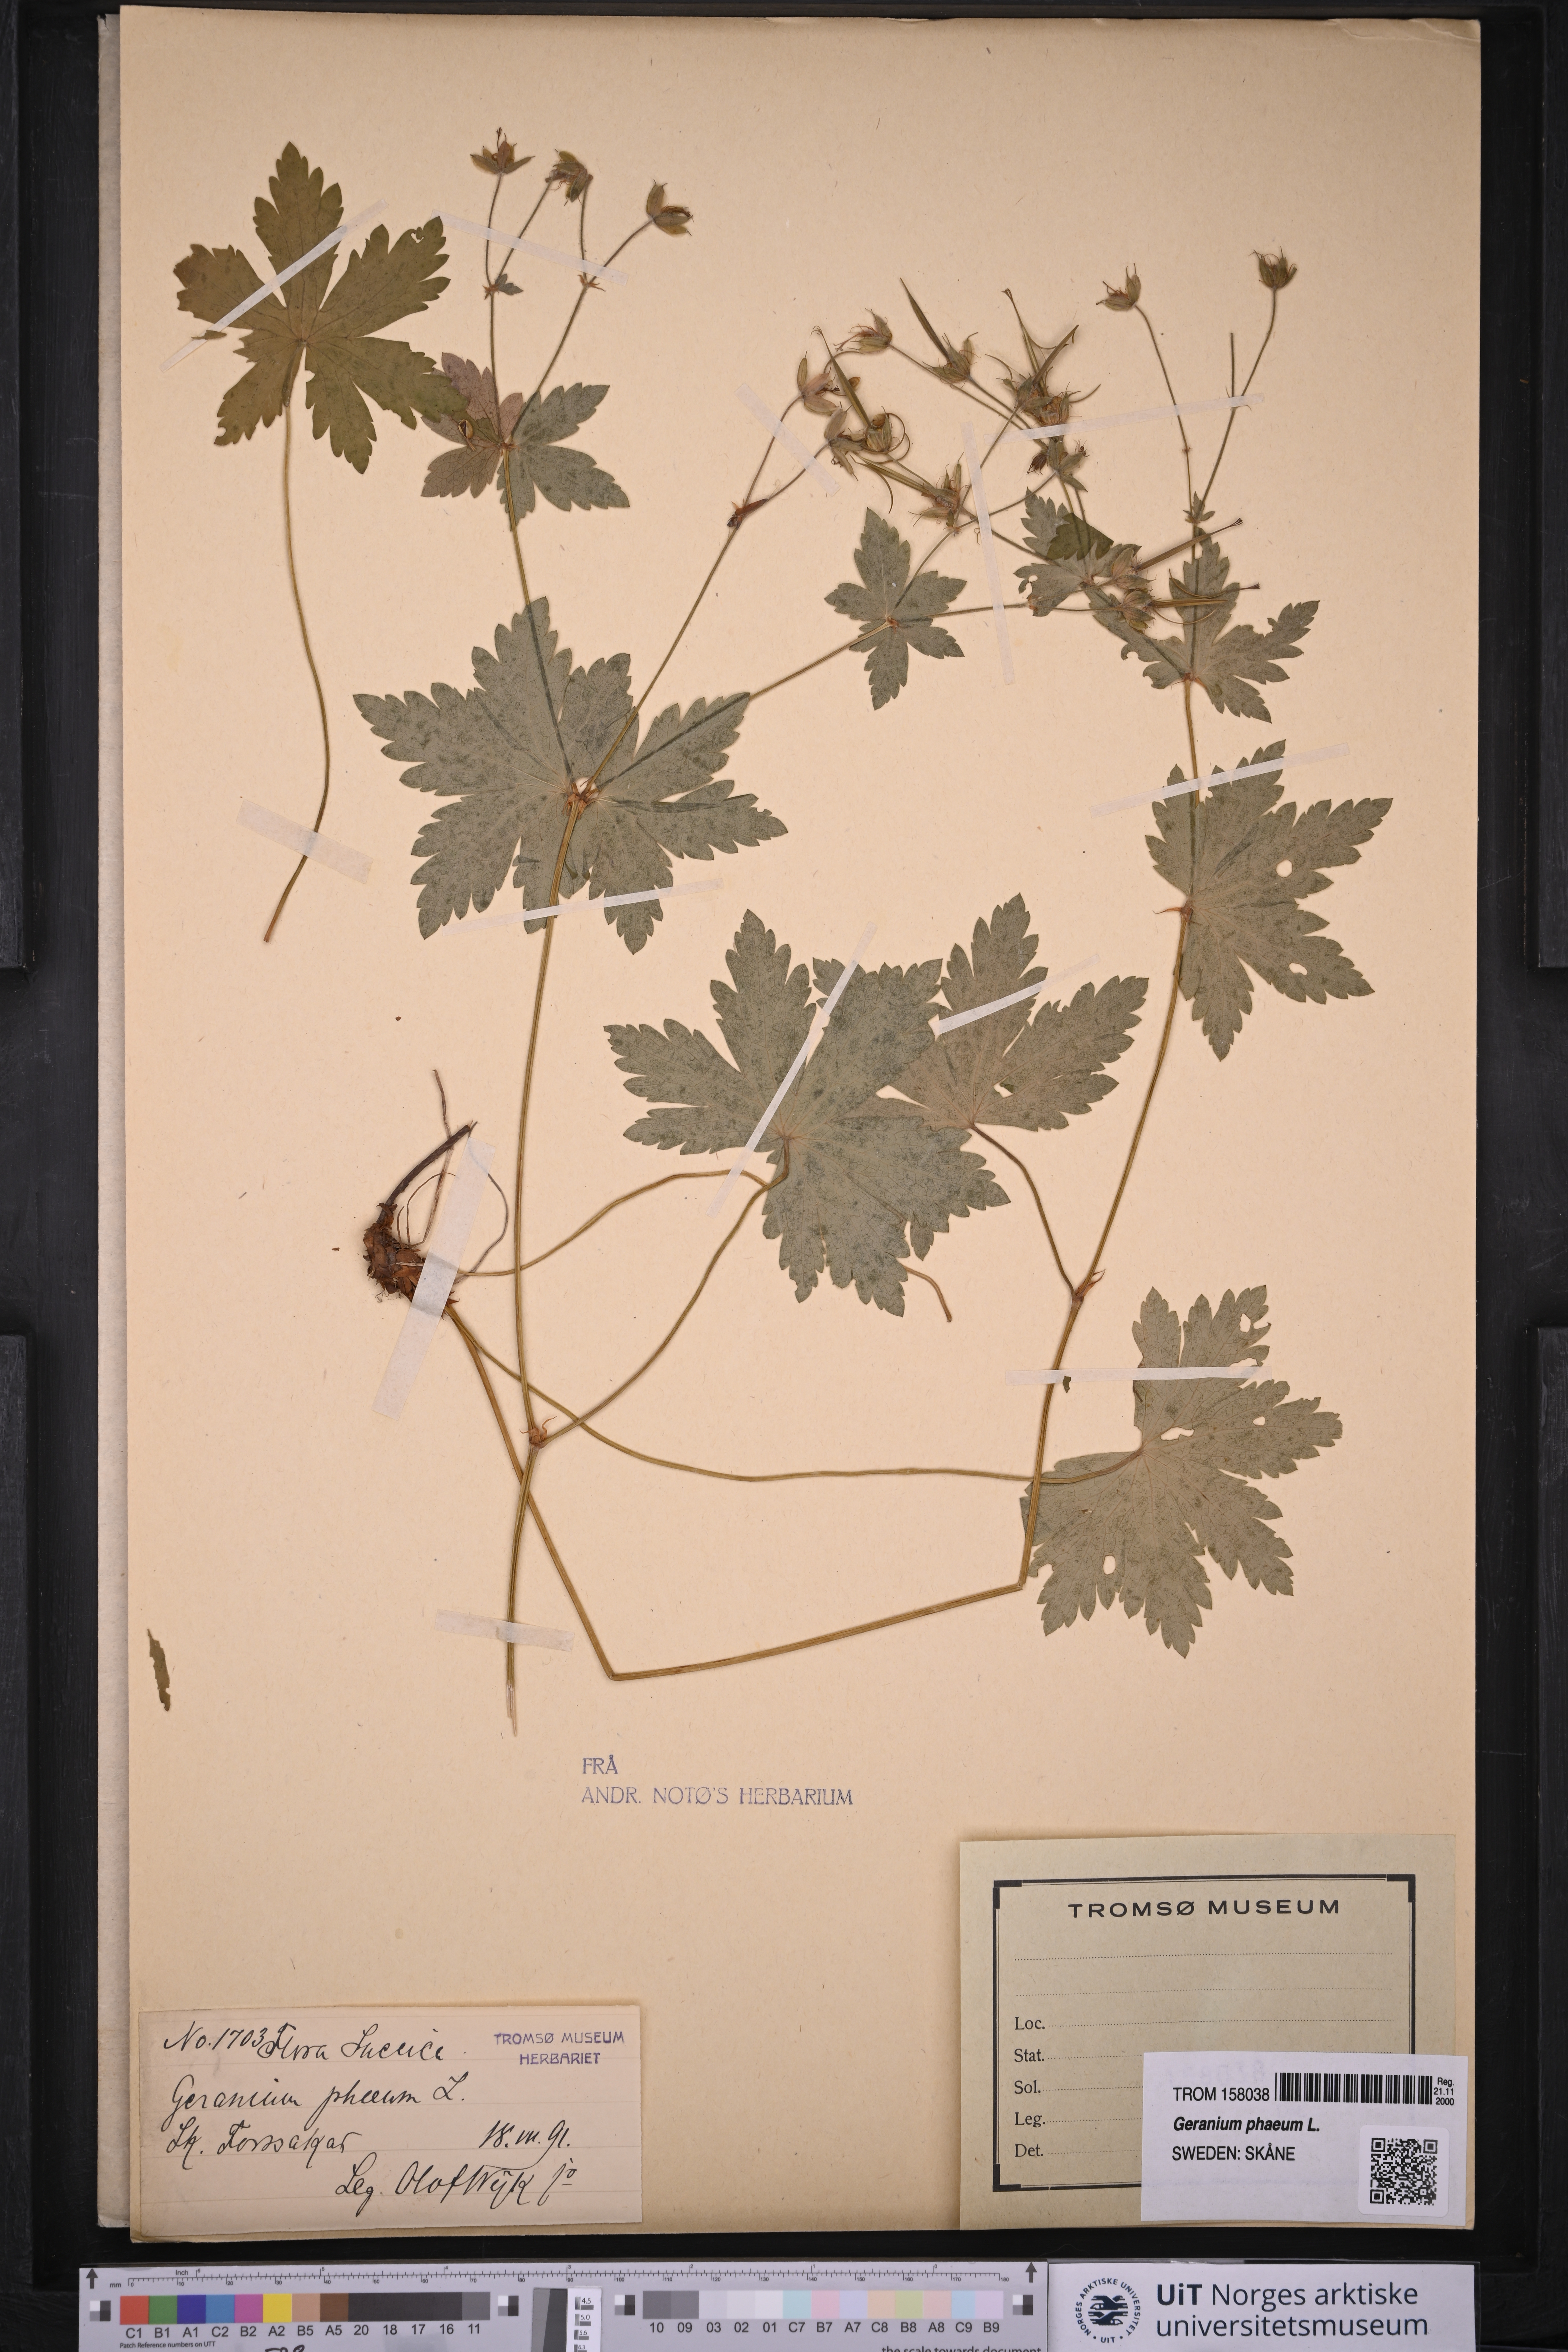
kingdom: Plantae
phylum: Tracheophyta
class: Magnoliopsida
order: Geraniales
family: Geraniaceae
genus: Geranium
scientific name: Geranium phaeum
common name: Dusky crane's-bill
